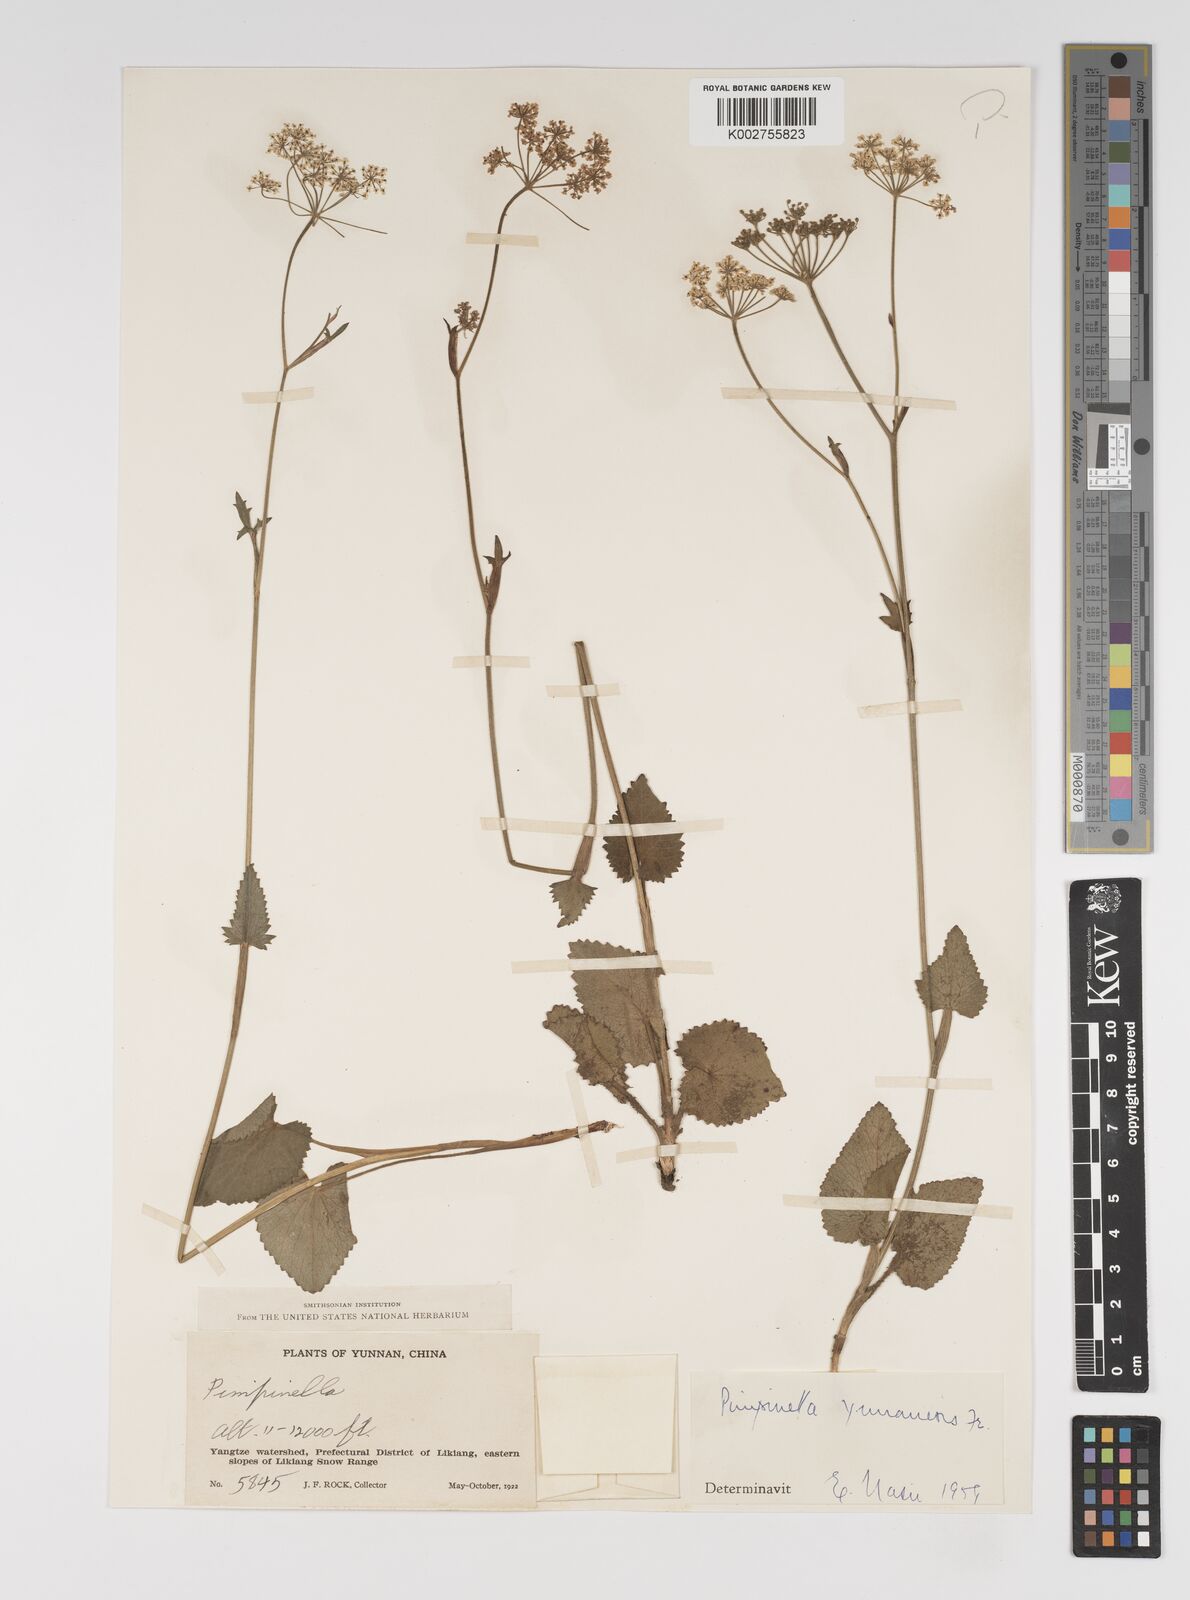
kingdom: Plantae
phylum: Tracheophyta
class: Magnoliopsida
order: Apiales
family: Apiaceae
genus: Pimpinella
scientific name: Pimpinella
